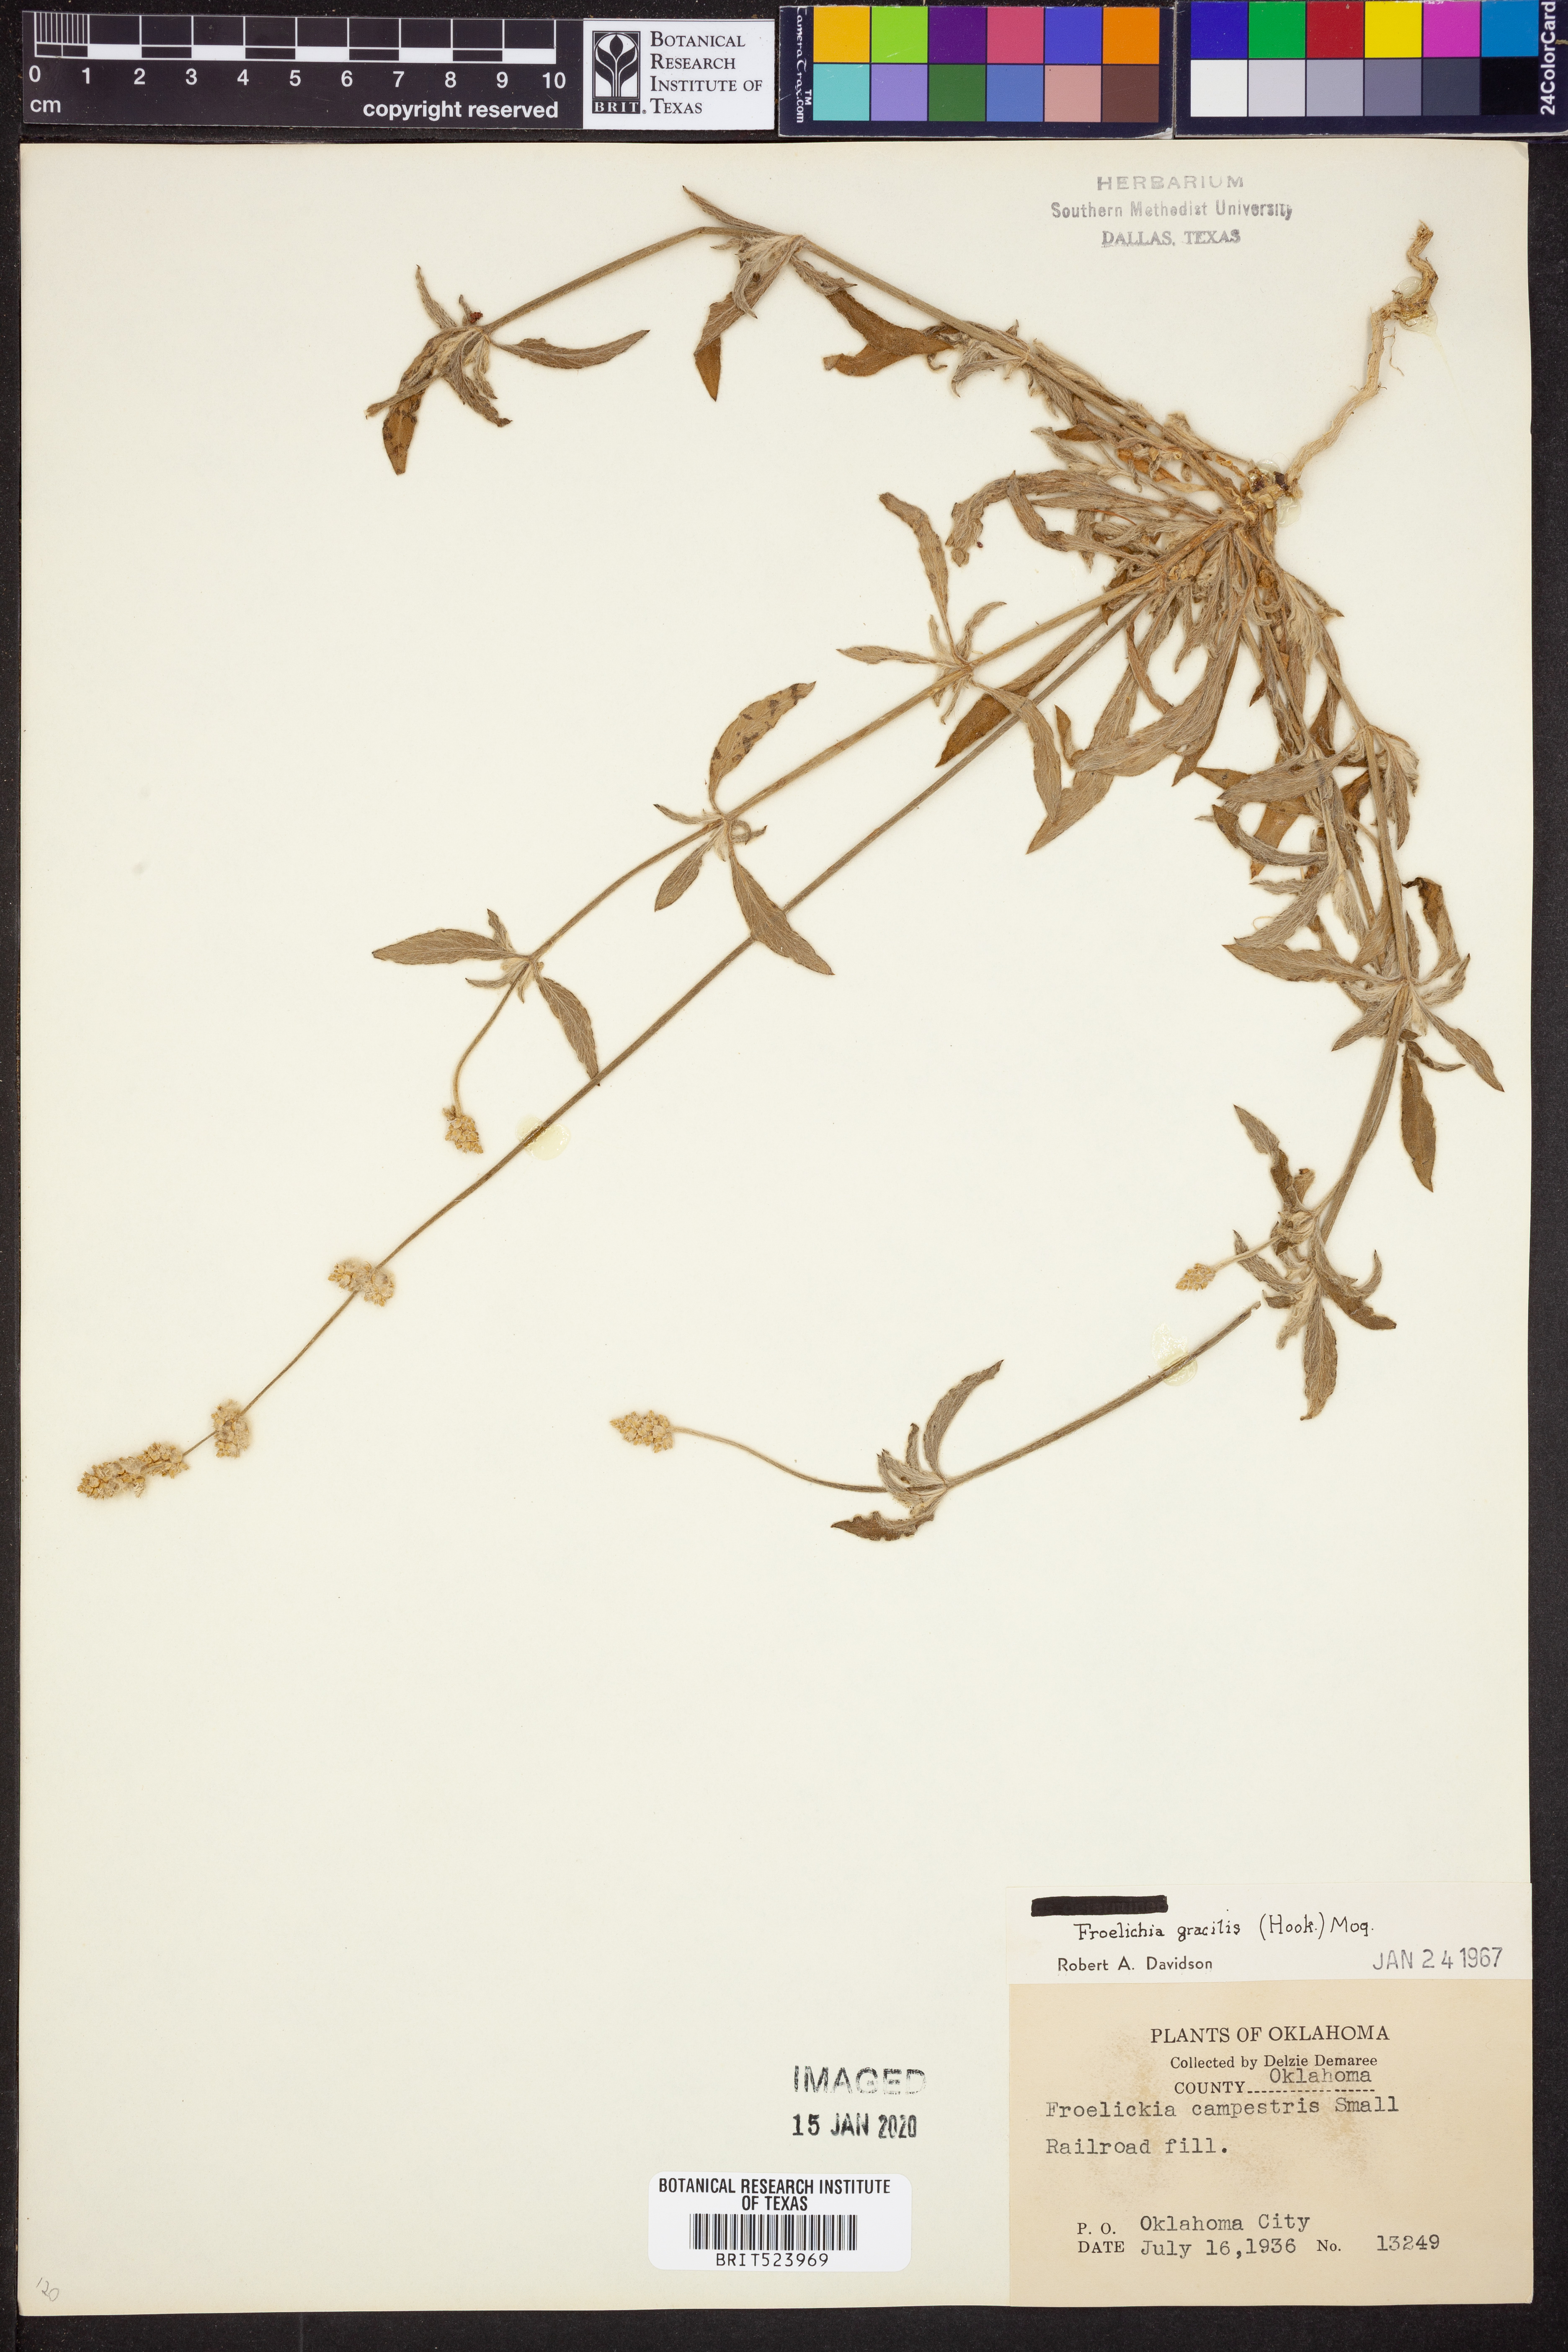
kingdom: Plantae
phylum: Tracheophyta
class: Magnoliopsida
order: Caryophyllales
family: Amaranthaceae
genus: Froelichia
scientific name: Froelichia gracilis
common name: Slender cottonweed
